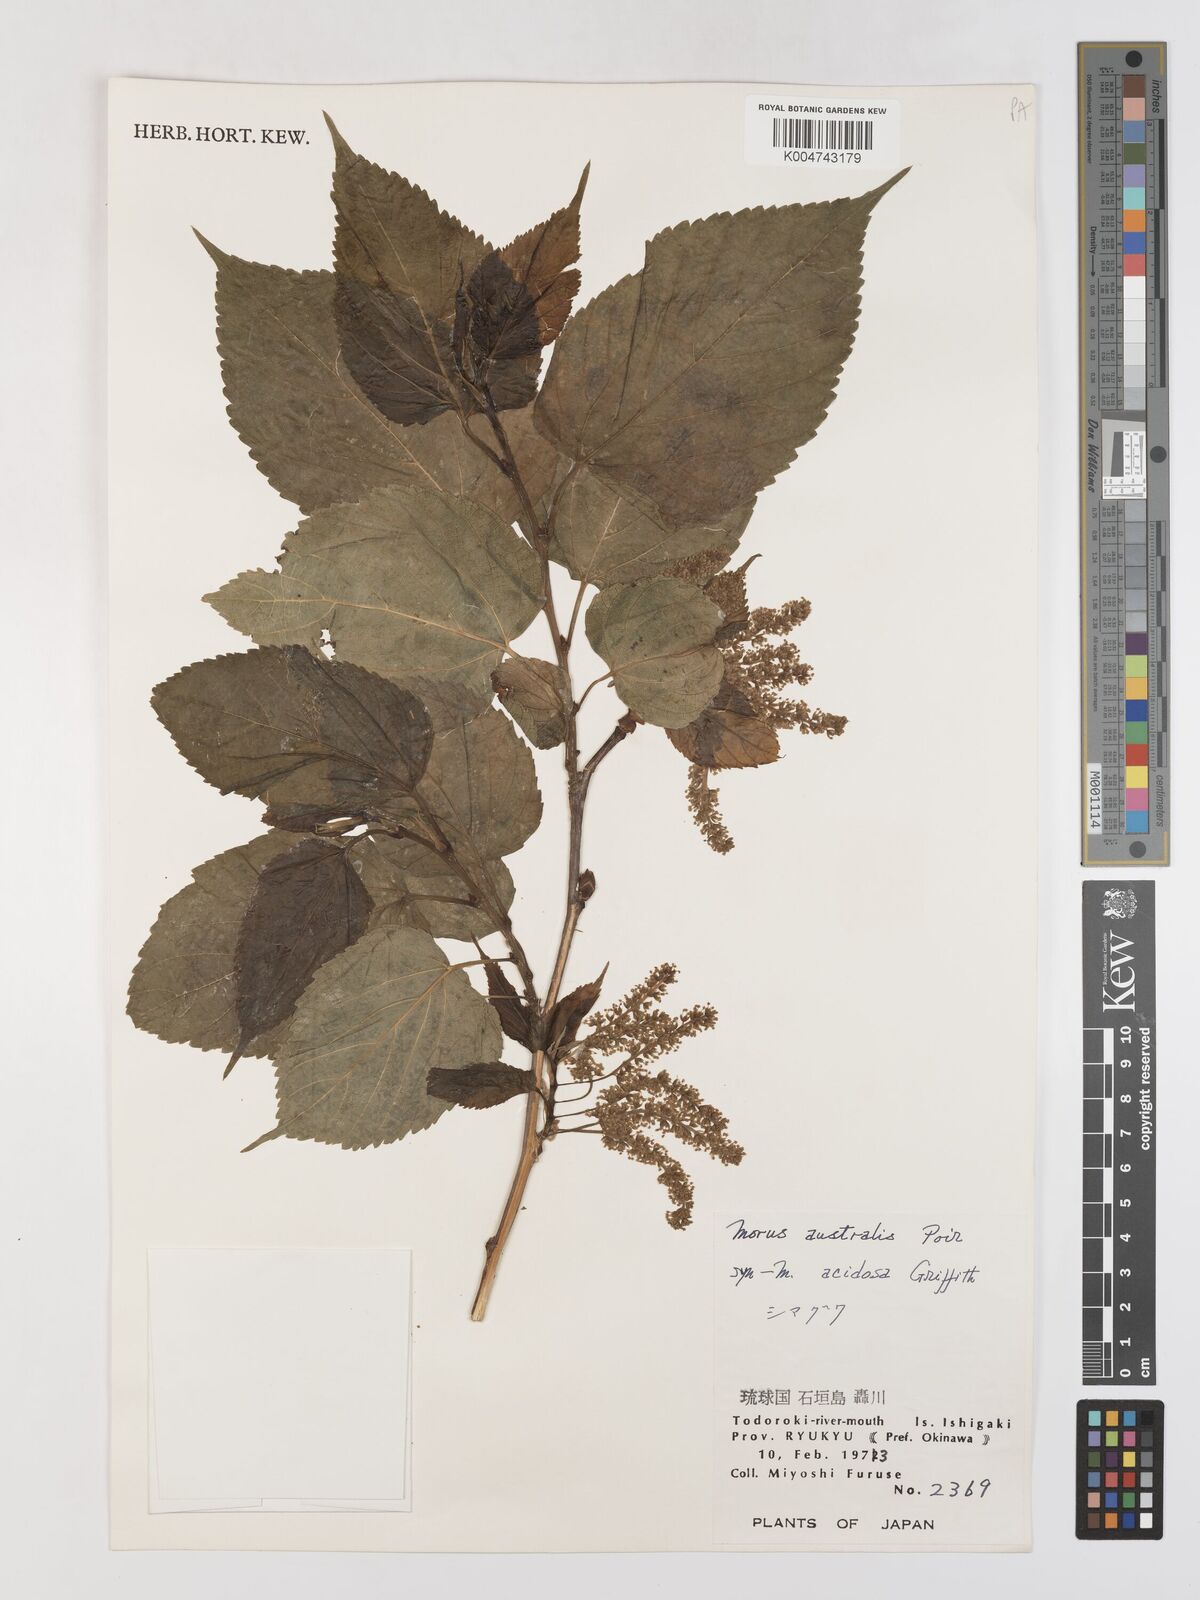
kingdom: Plantae
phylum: Tracheophyta
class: Magnoliopsida
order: Rosales
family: Moraceae
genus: Morus
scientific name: Morus indica
